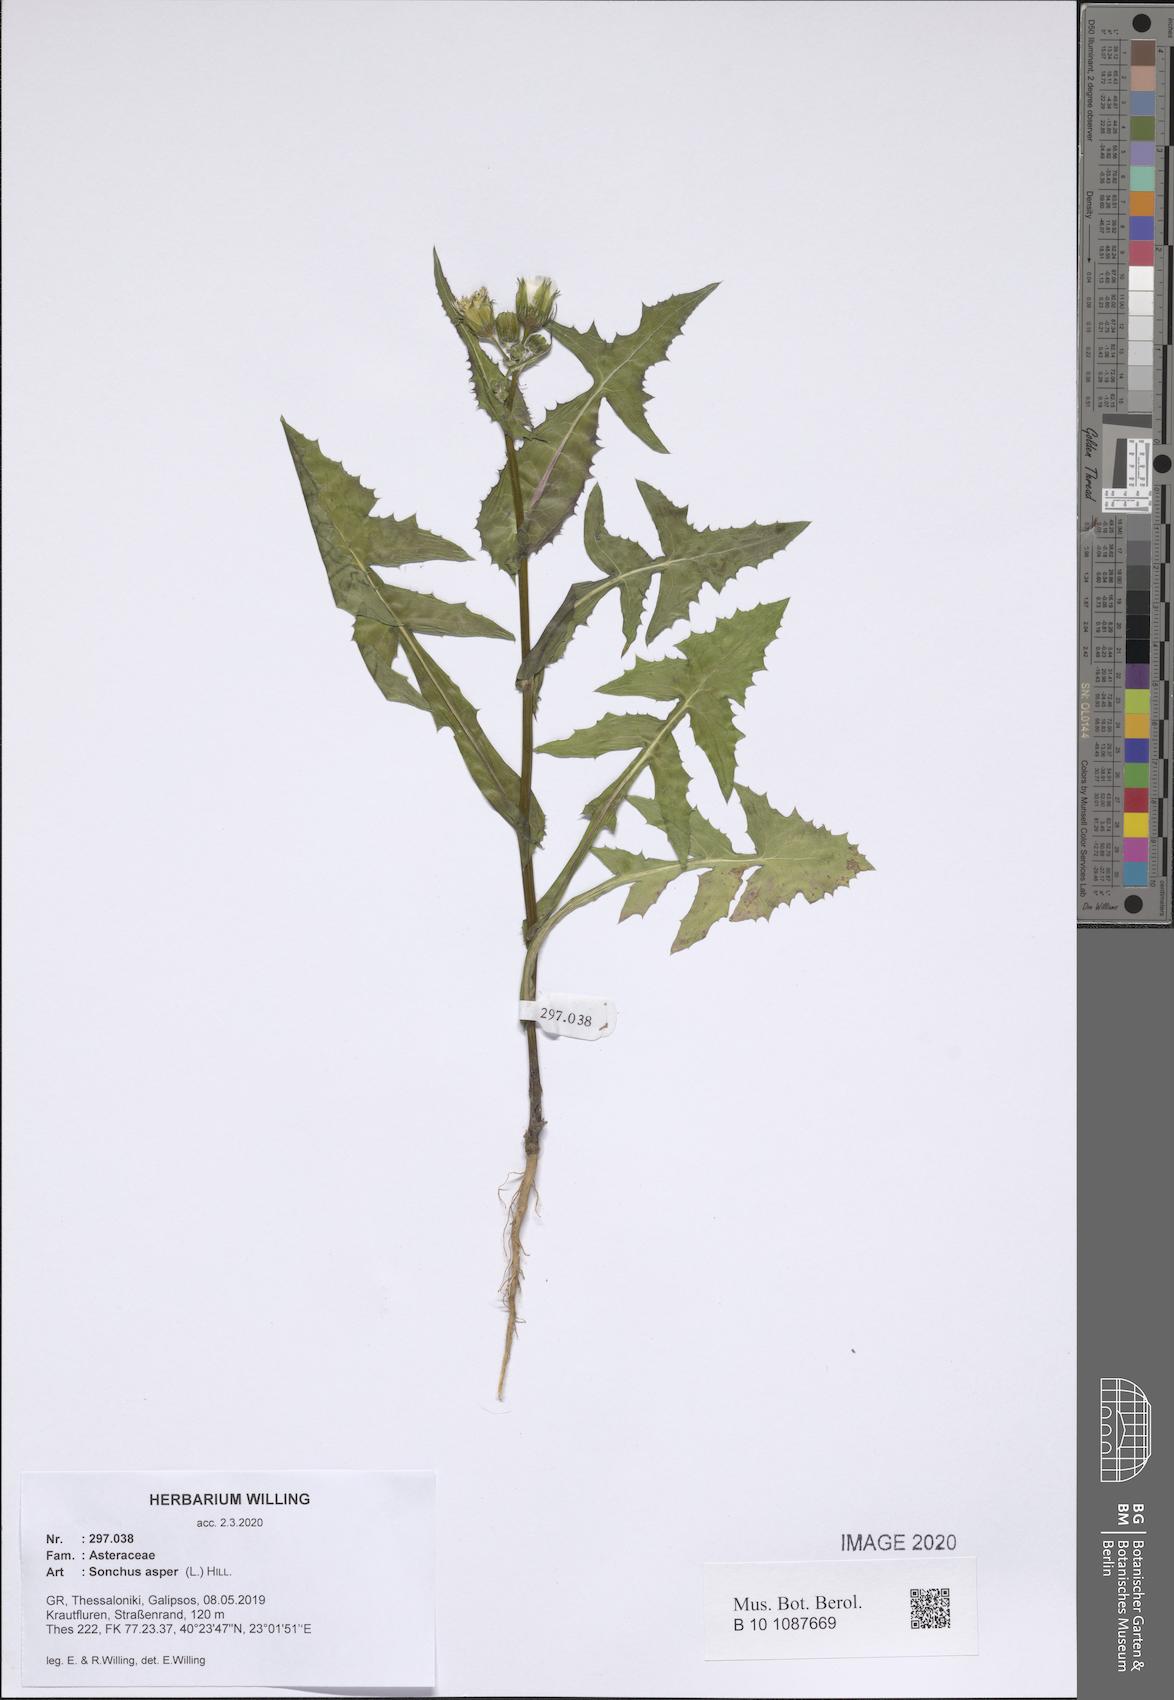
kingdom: Plantae
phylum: Tracheophyta
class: Magnoliopsida
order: Asterales
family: Asteraceae
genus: Sonchus
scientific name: Sonchus asper
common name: Prickly sow-thistle
